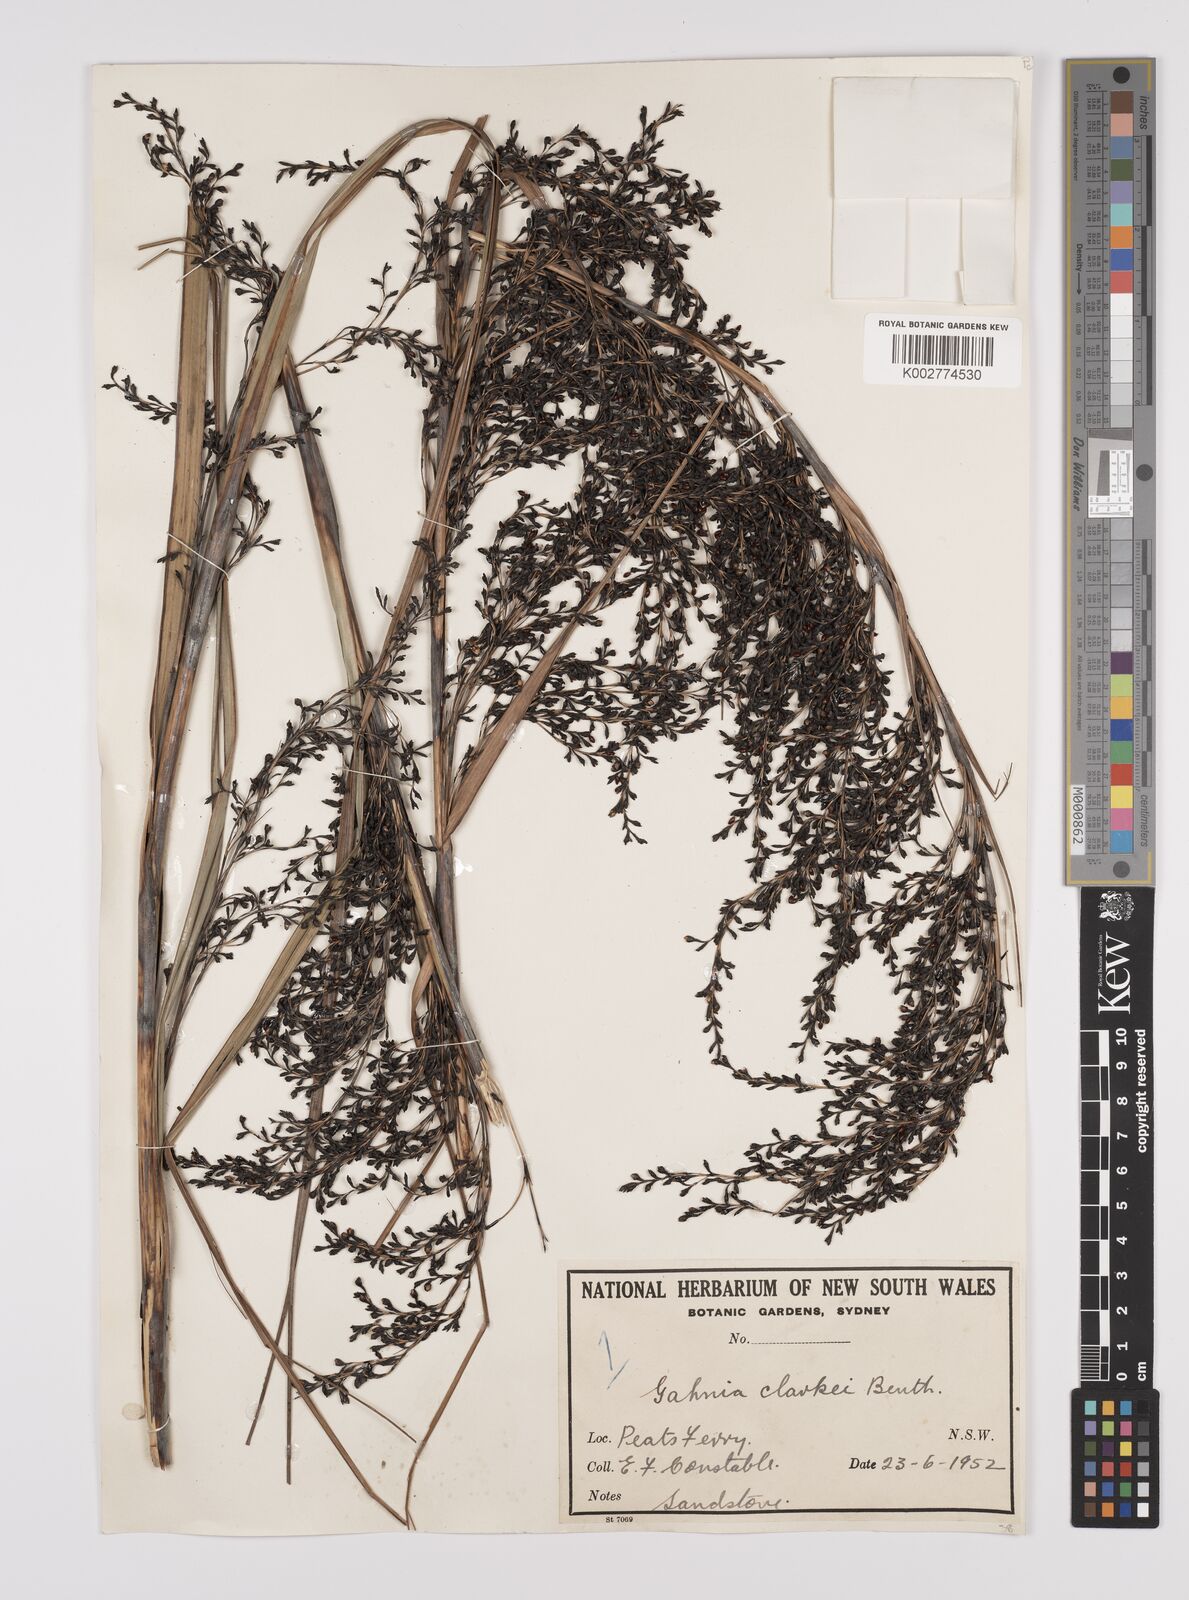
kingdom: Plantae
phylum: Tracheophyta
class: Liliopsida
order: Poales
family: Cyperaceae
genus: Gahnia
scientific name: Gahnia clarkei
